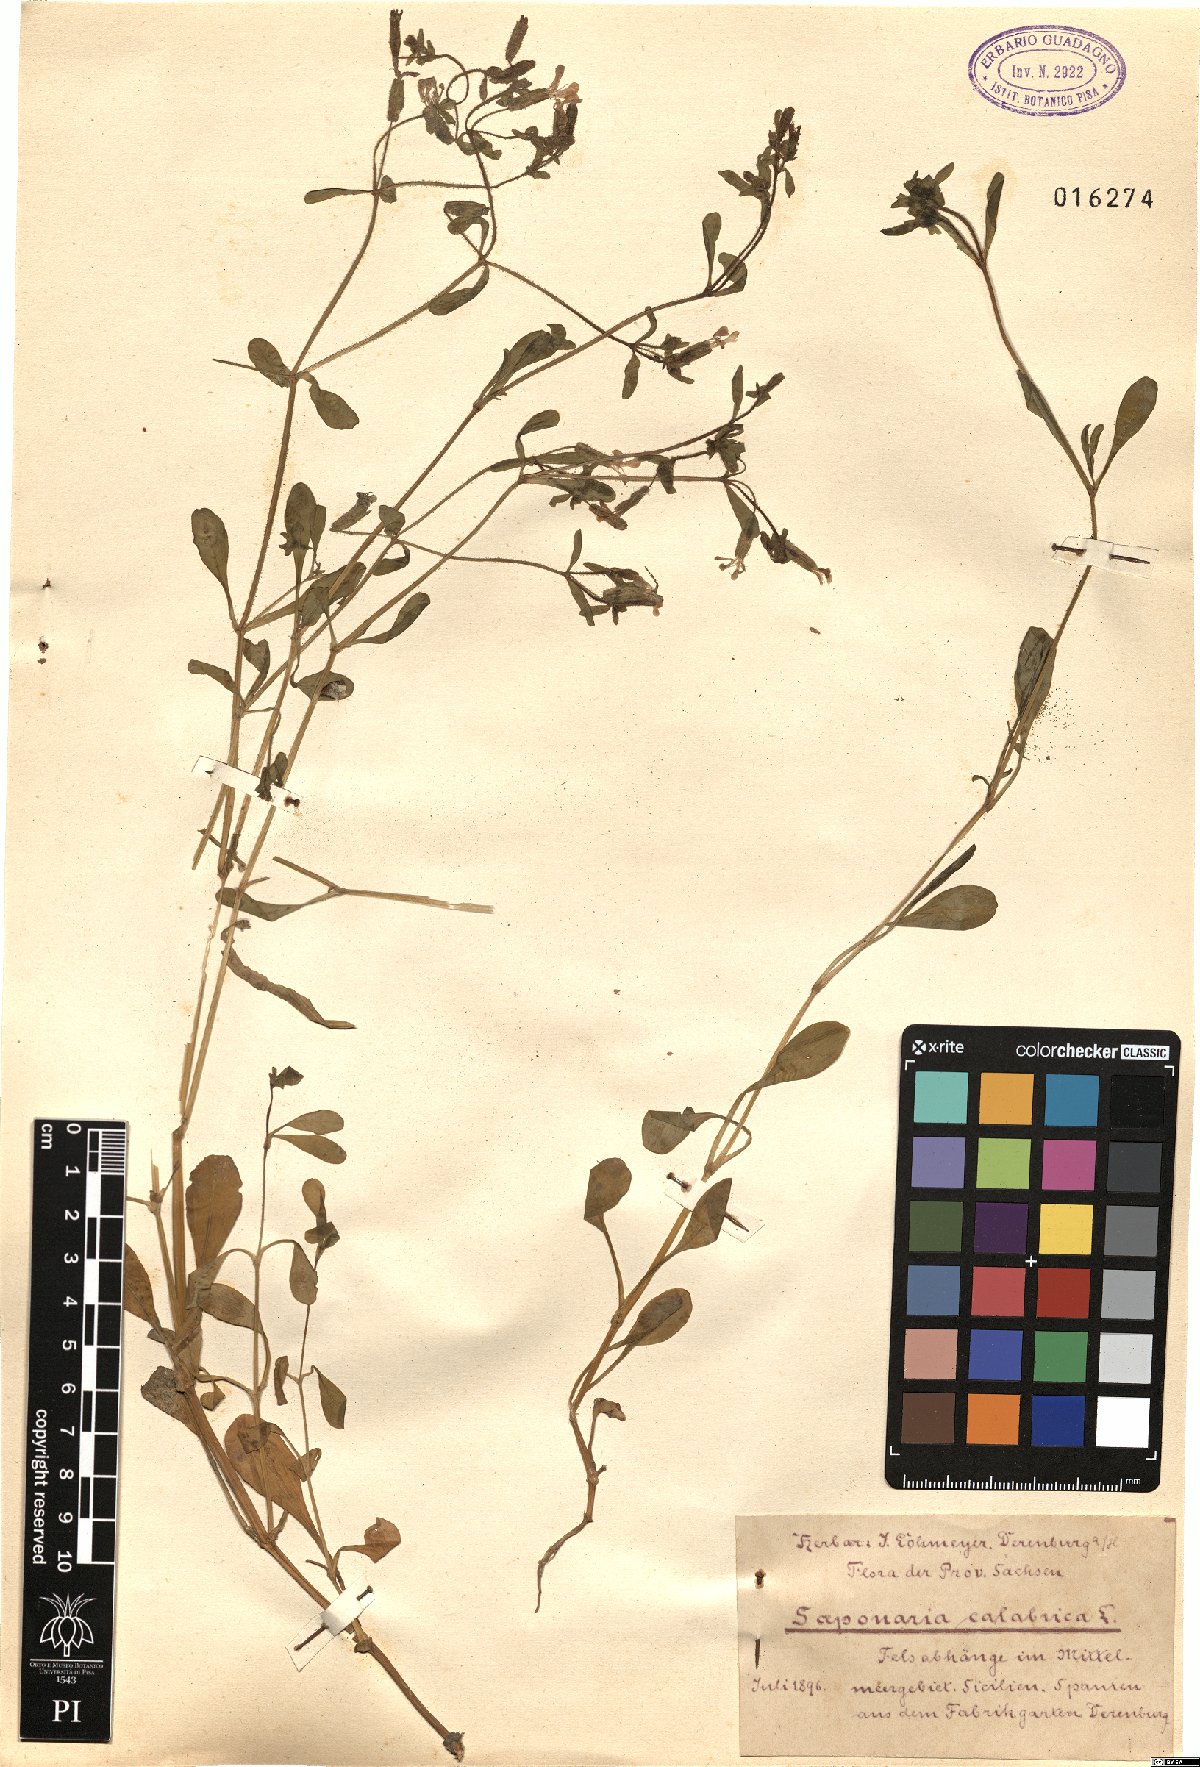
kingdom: Plantae
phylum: Tracheophyta
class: Magnoliopsida
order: Caryophyllales
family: Caryophyllaceae
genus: Saponaria
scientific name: Saponaria calabrica
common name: Adriatic soapwort
